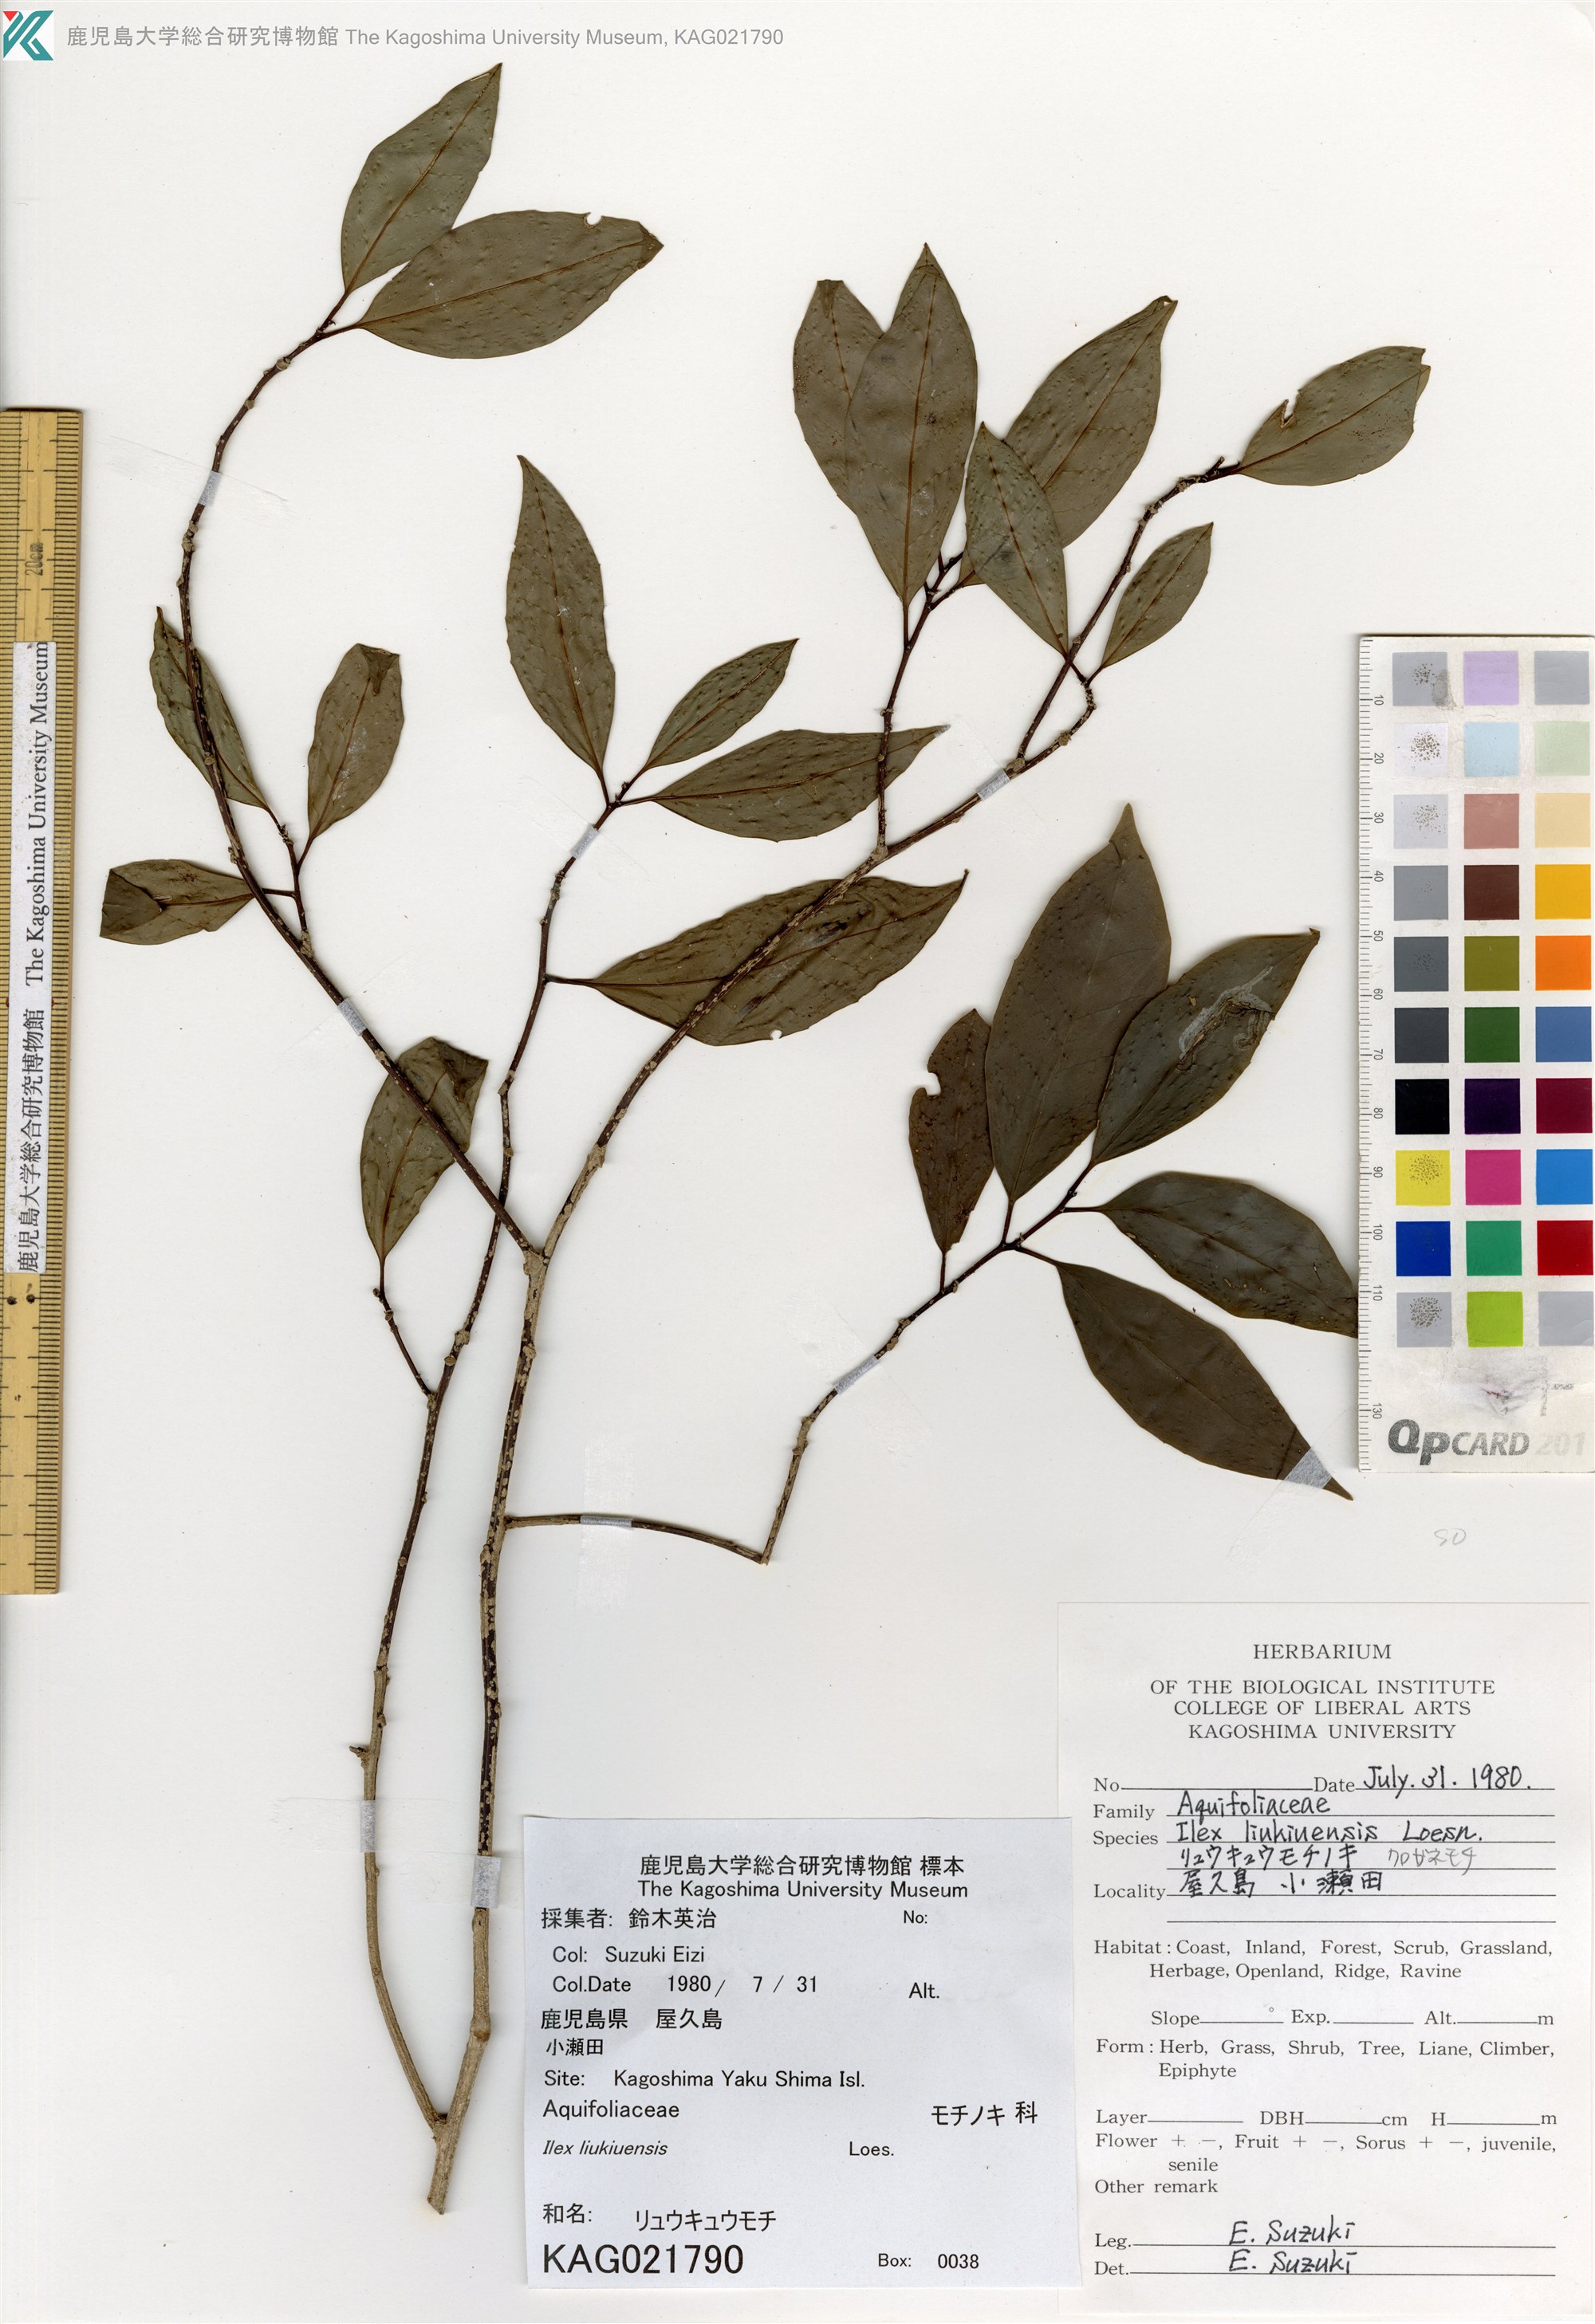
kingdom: Plantae
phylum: Tracheophyta
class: Magnoliopsida
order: Aquifoliales
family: Aquifoliaceae
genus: Ilex
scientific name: Ilex liukiuensis
